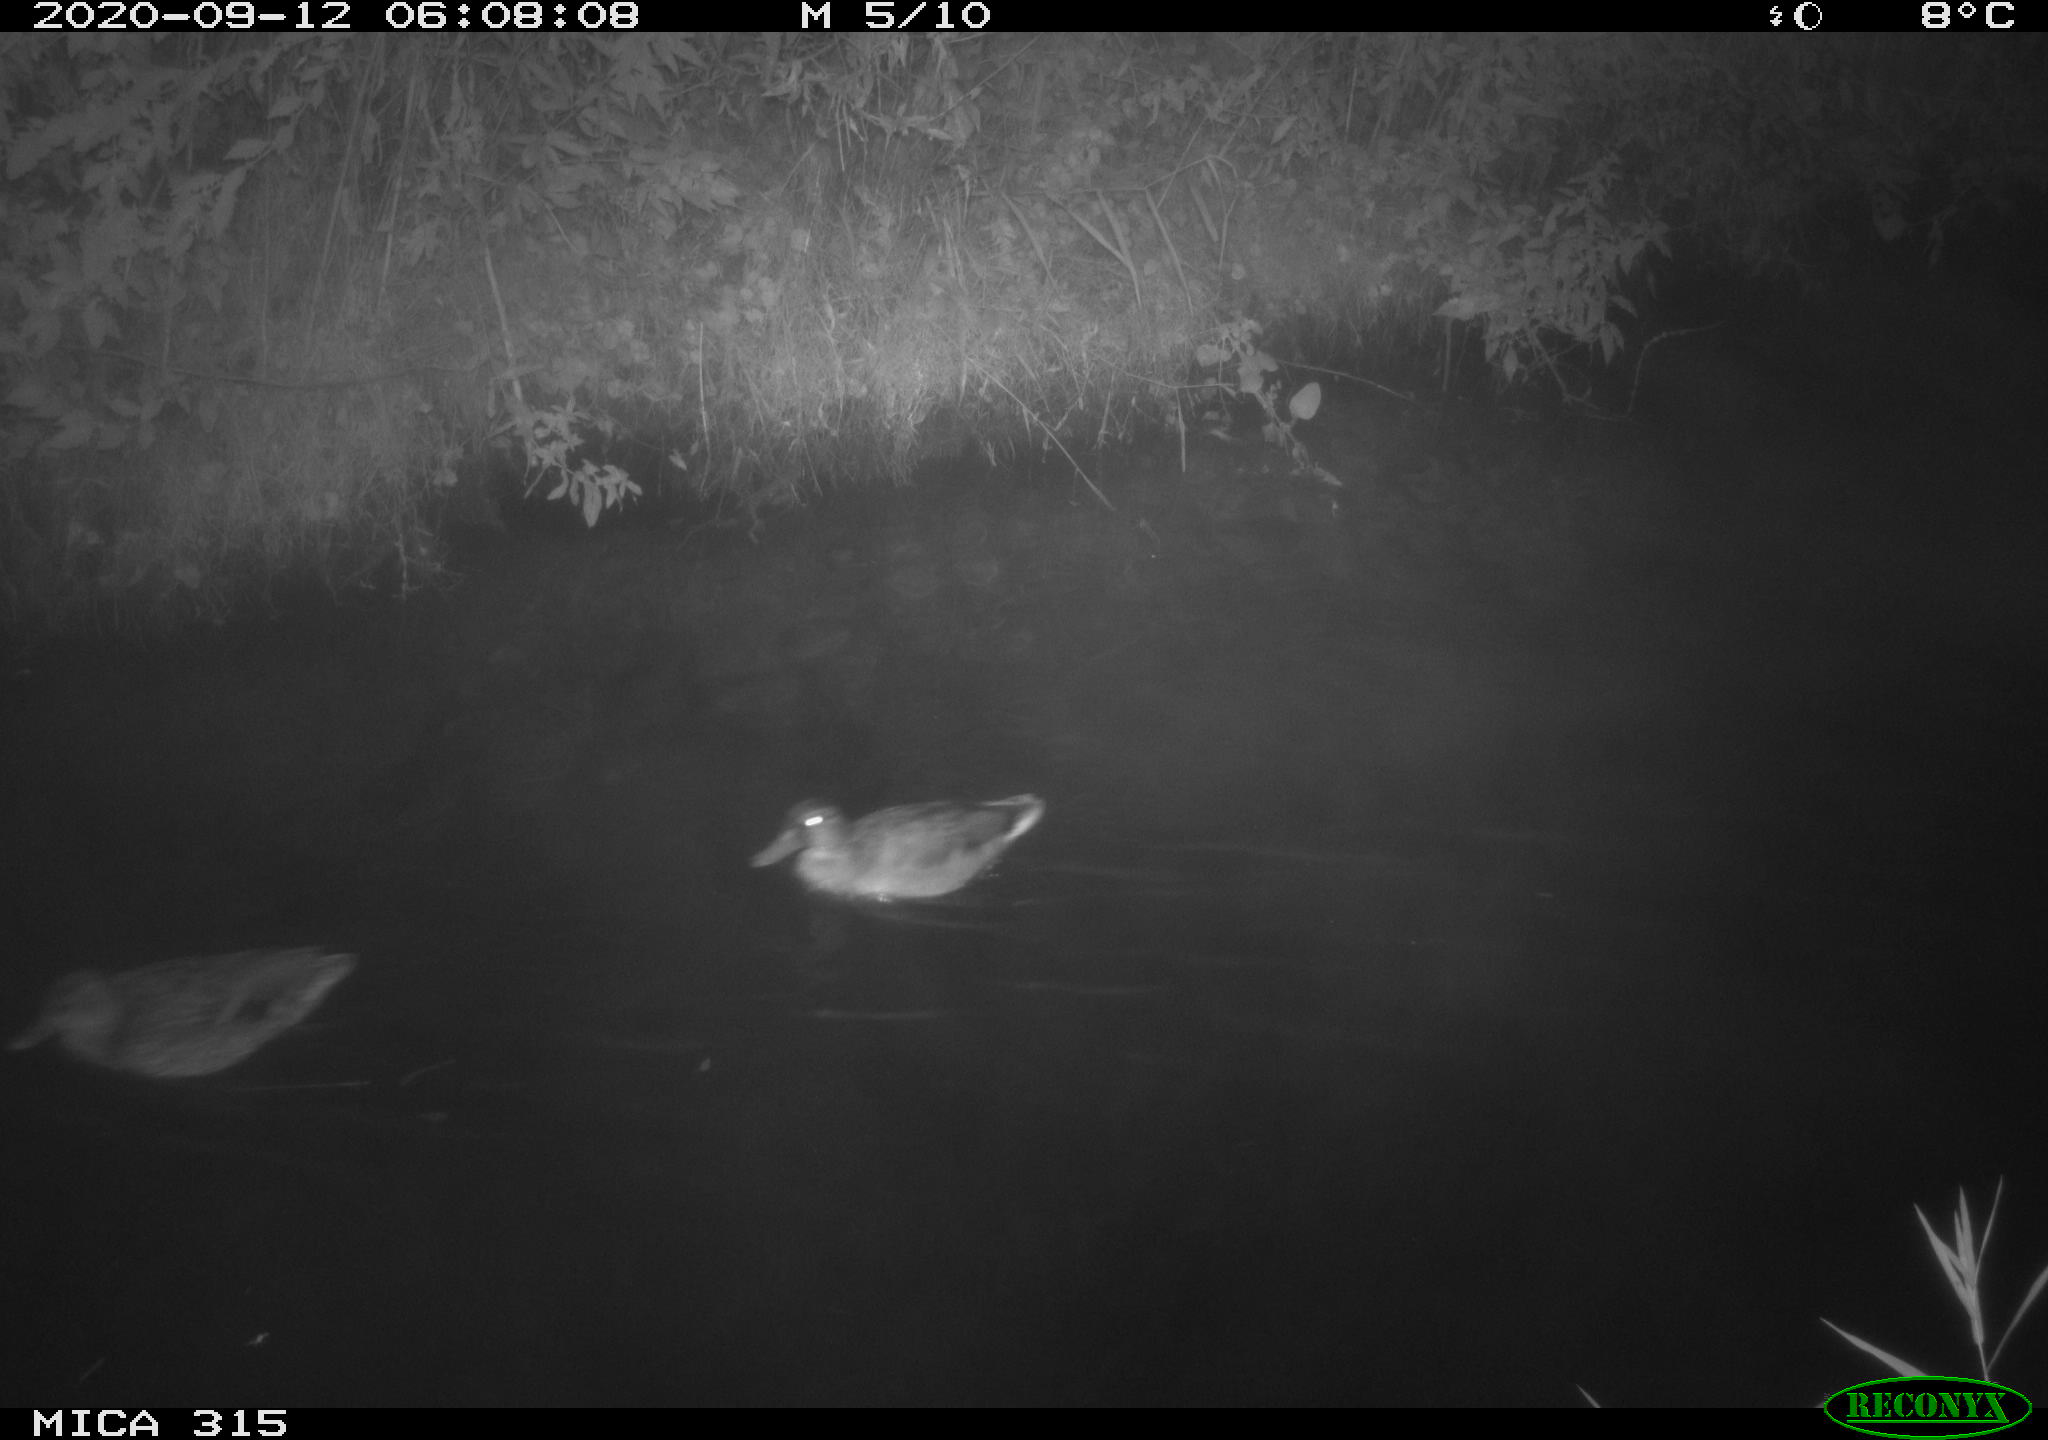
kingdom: Animalia
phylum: Chordata
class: Aves
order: Anseriformes
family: Anatidae
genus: Anas
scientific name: Anas platyrhynchos
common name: Mallard
